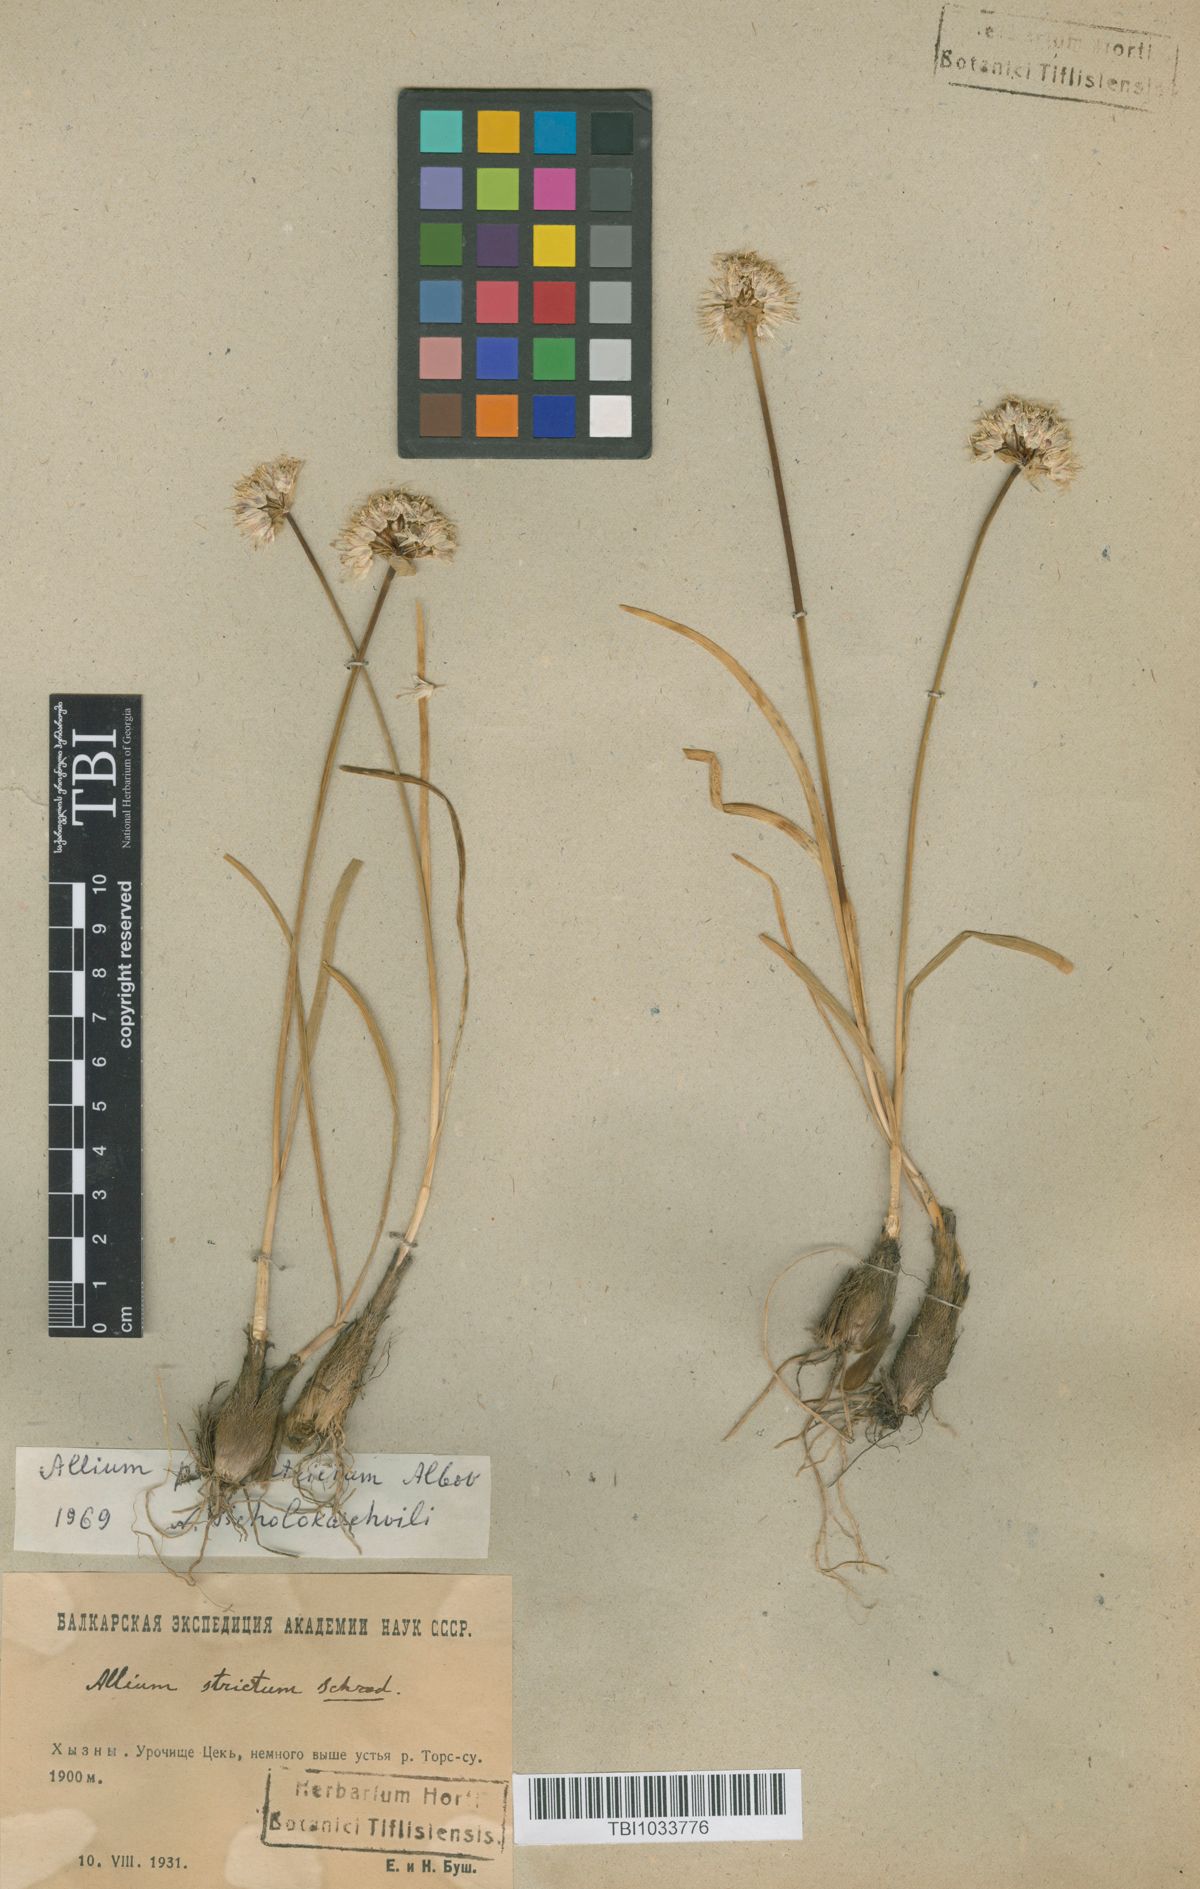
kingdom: Plantae
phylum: Tracheophyta
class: Liliopsida
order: Asparagales
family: Amaryllidaceae
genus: Allium
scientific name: Allium pseudostrictum
